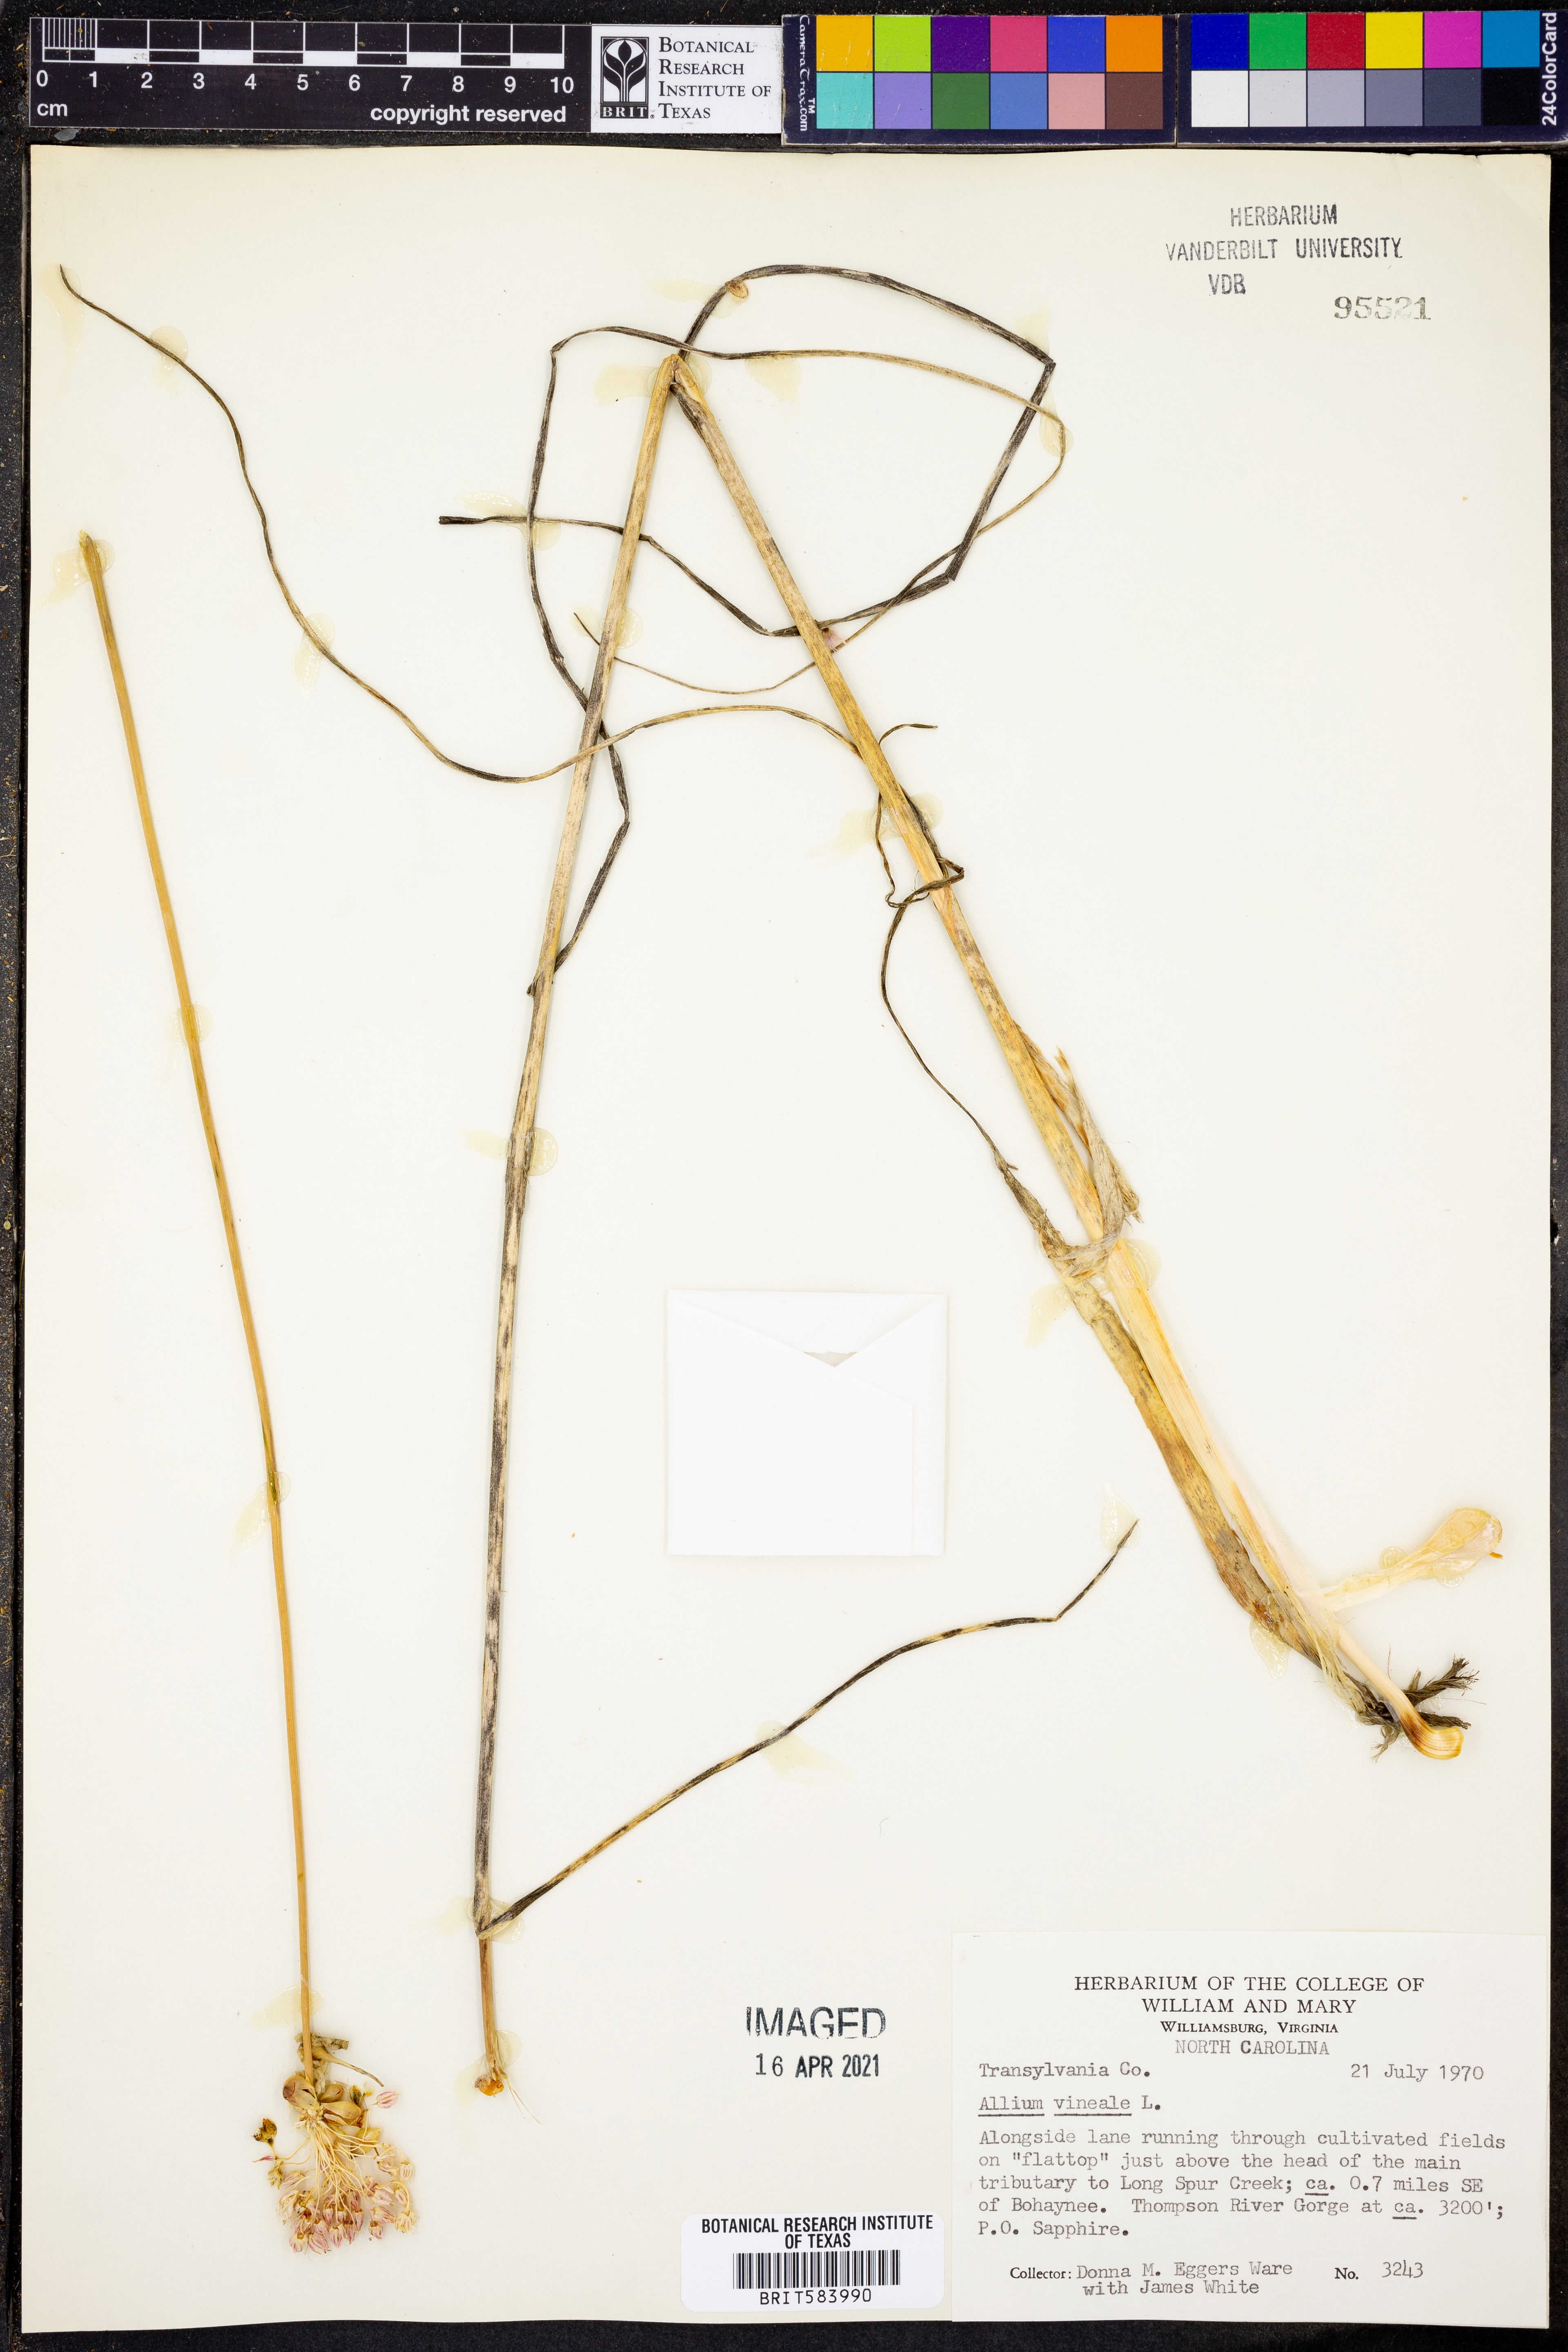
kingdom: Plantae
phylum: Tracheophyta
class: Liliopsida
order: Asparagales
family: Amaryllidaceae
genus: Allium
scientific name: Allium vineale
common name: Crow garlic
